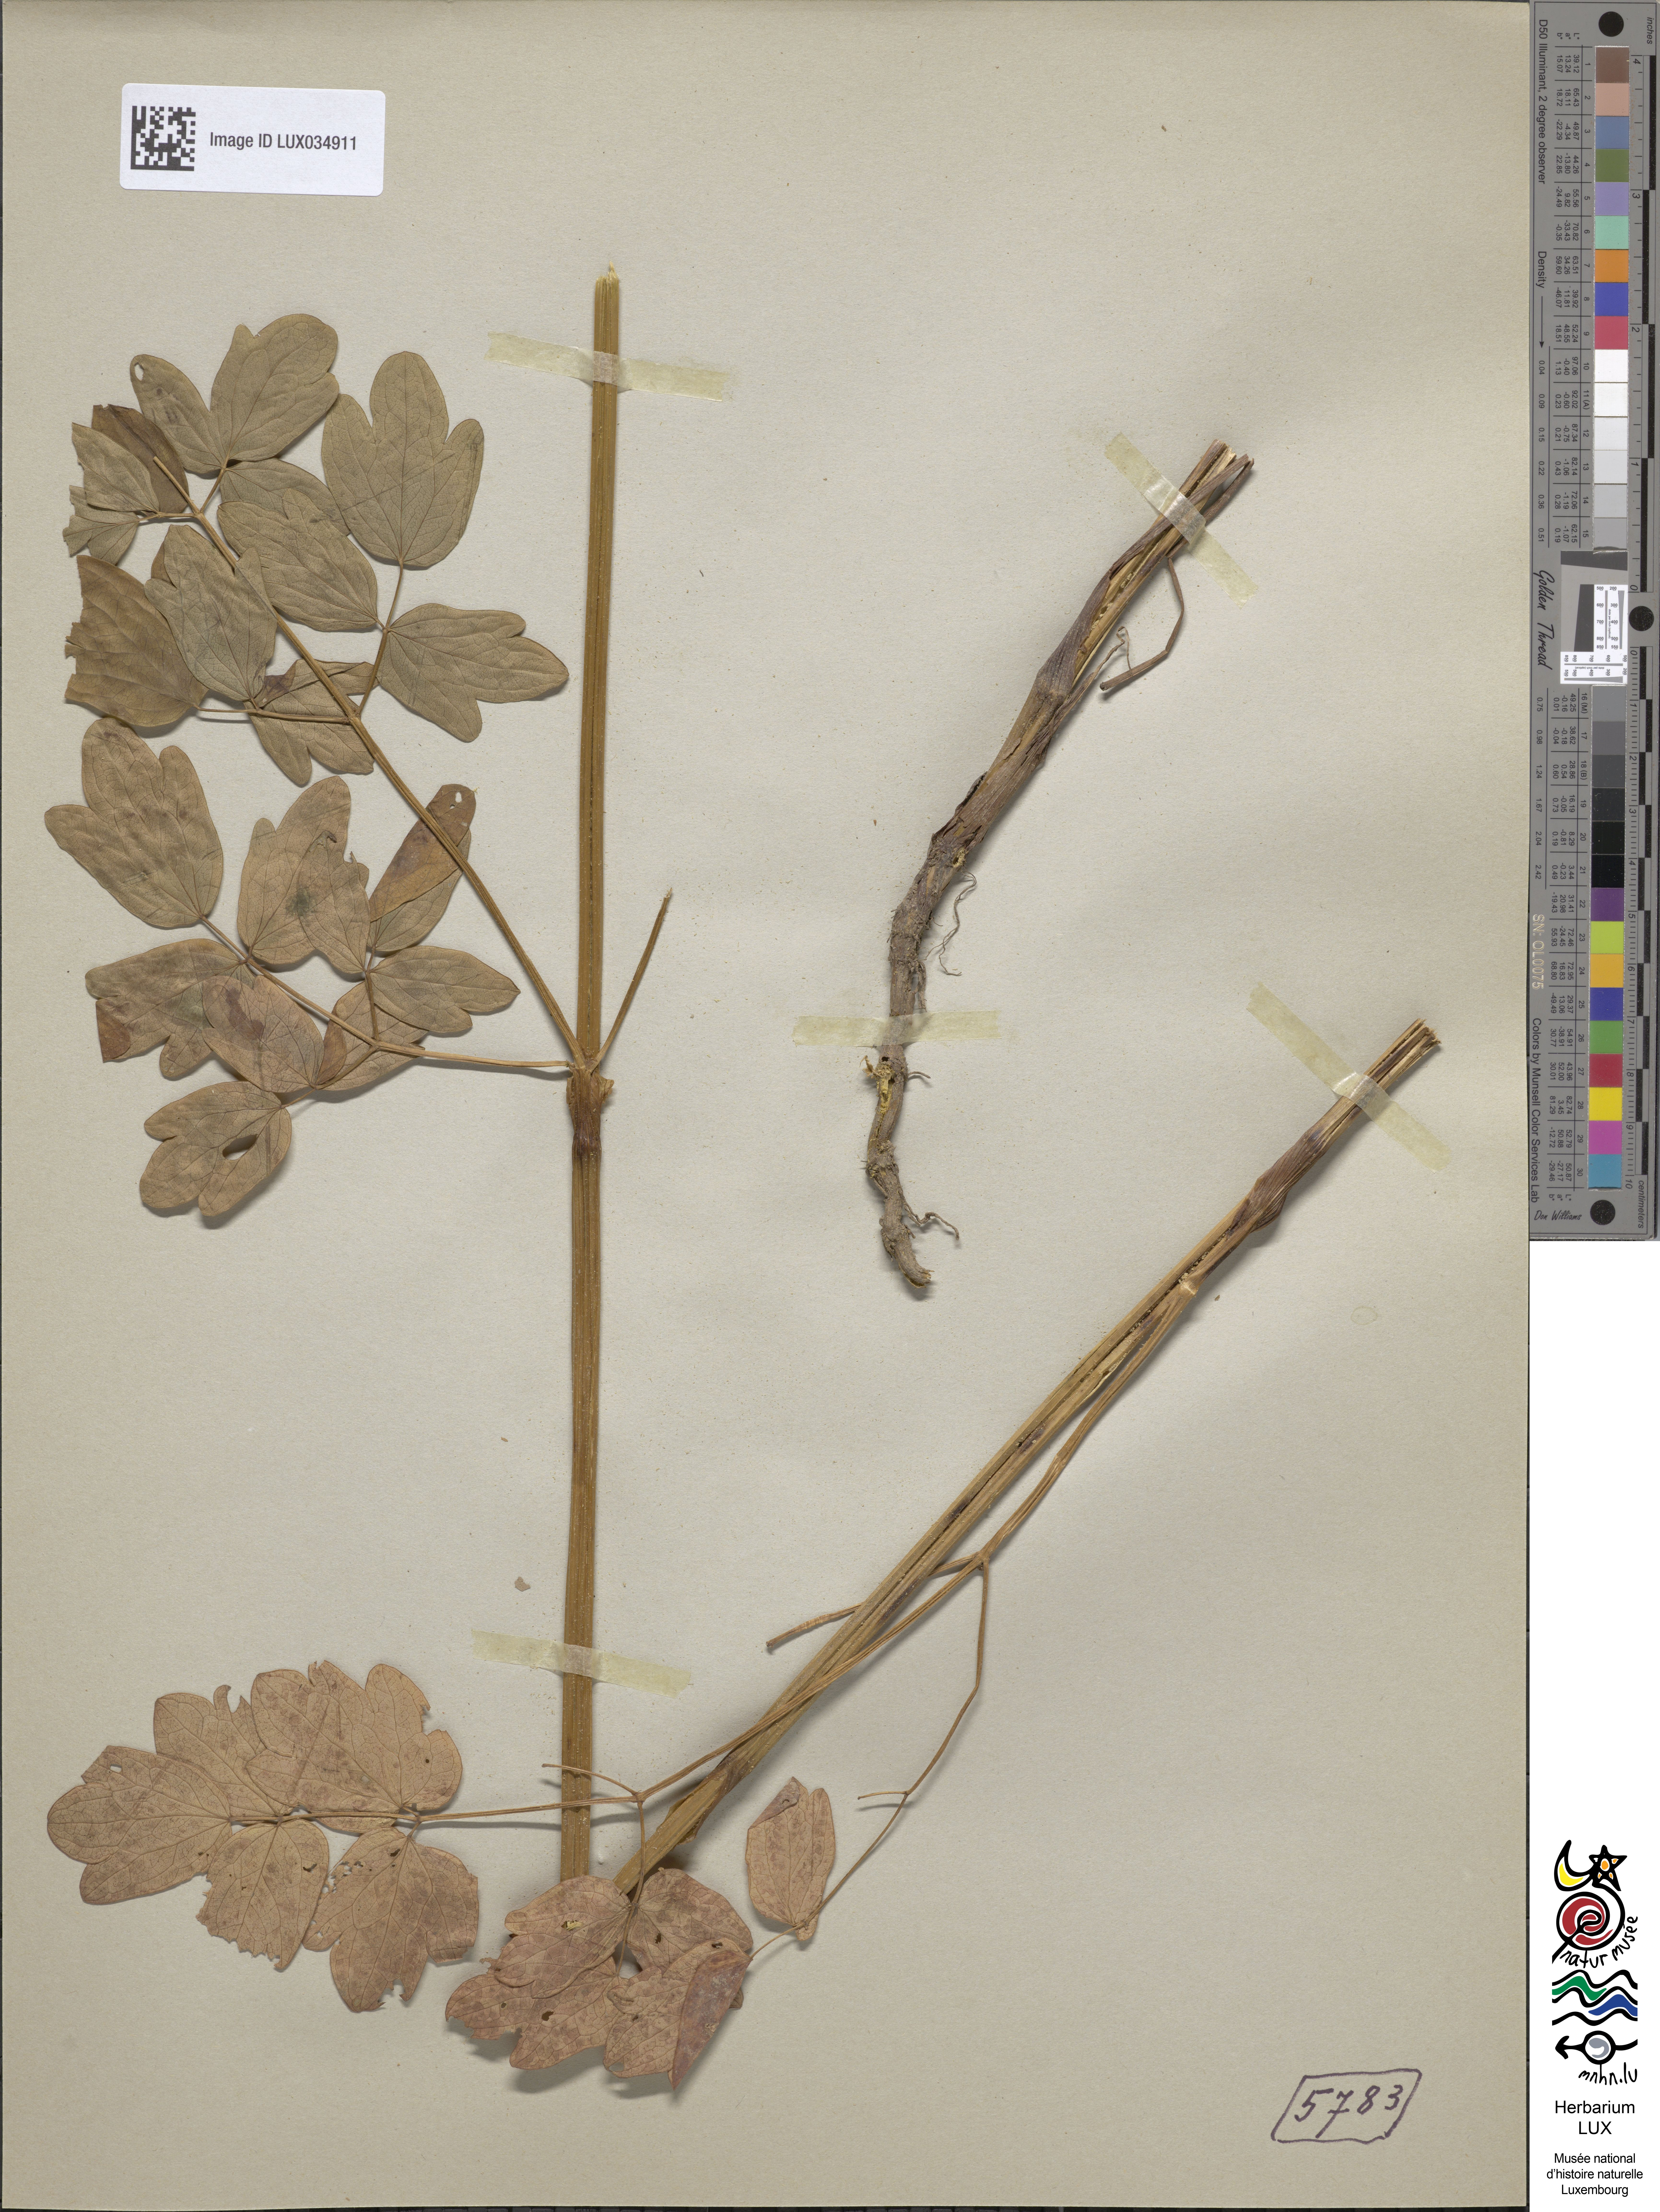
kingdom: Plantae
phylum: Tracheophyta
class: Magnoliopsida
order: Ranunculales
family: Ranunculaceae
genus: Thalictrum
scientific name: Thalictrum flavum
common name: Common meadow-rue
